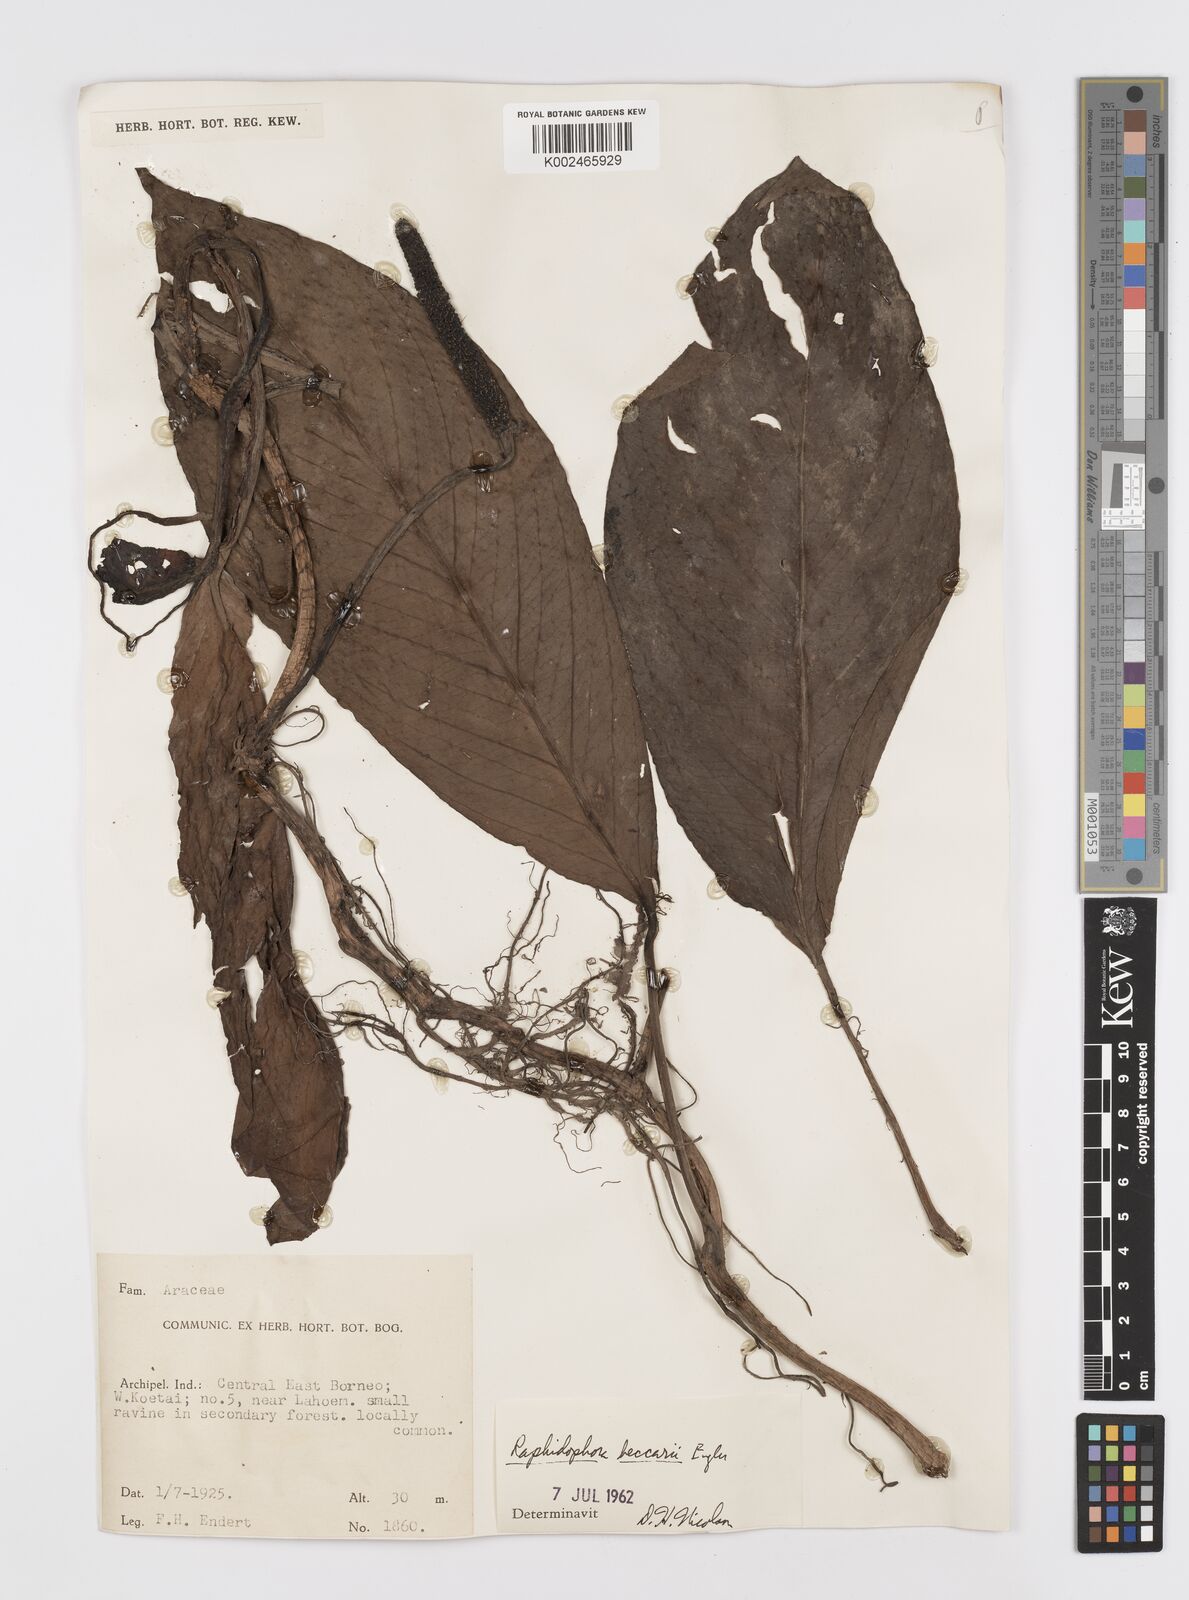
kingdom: Plantae
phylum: Tracheophyta
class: Liliopsida
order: Alismatales
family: Araceae
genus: Rhaphidophora
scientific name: Rhaphidophora beccarii
